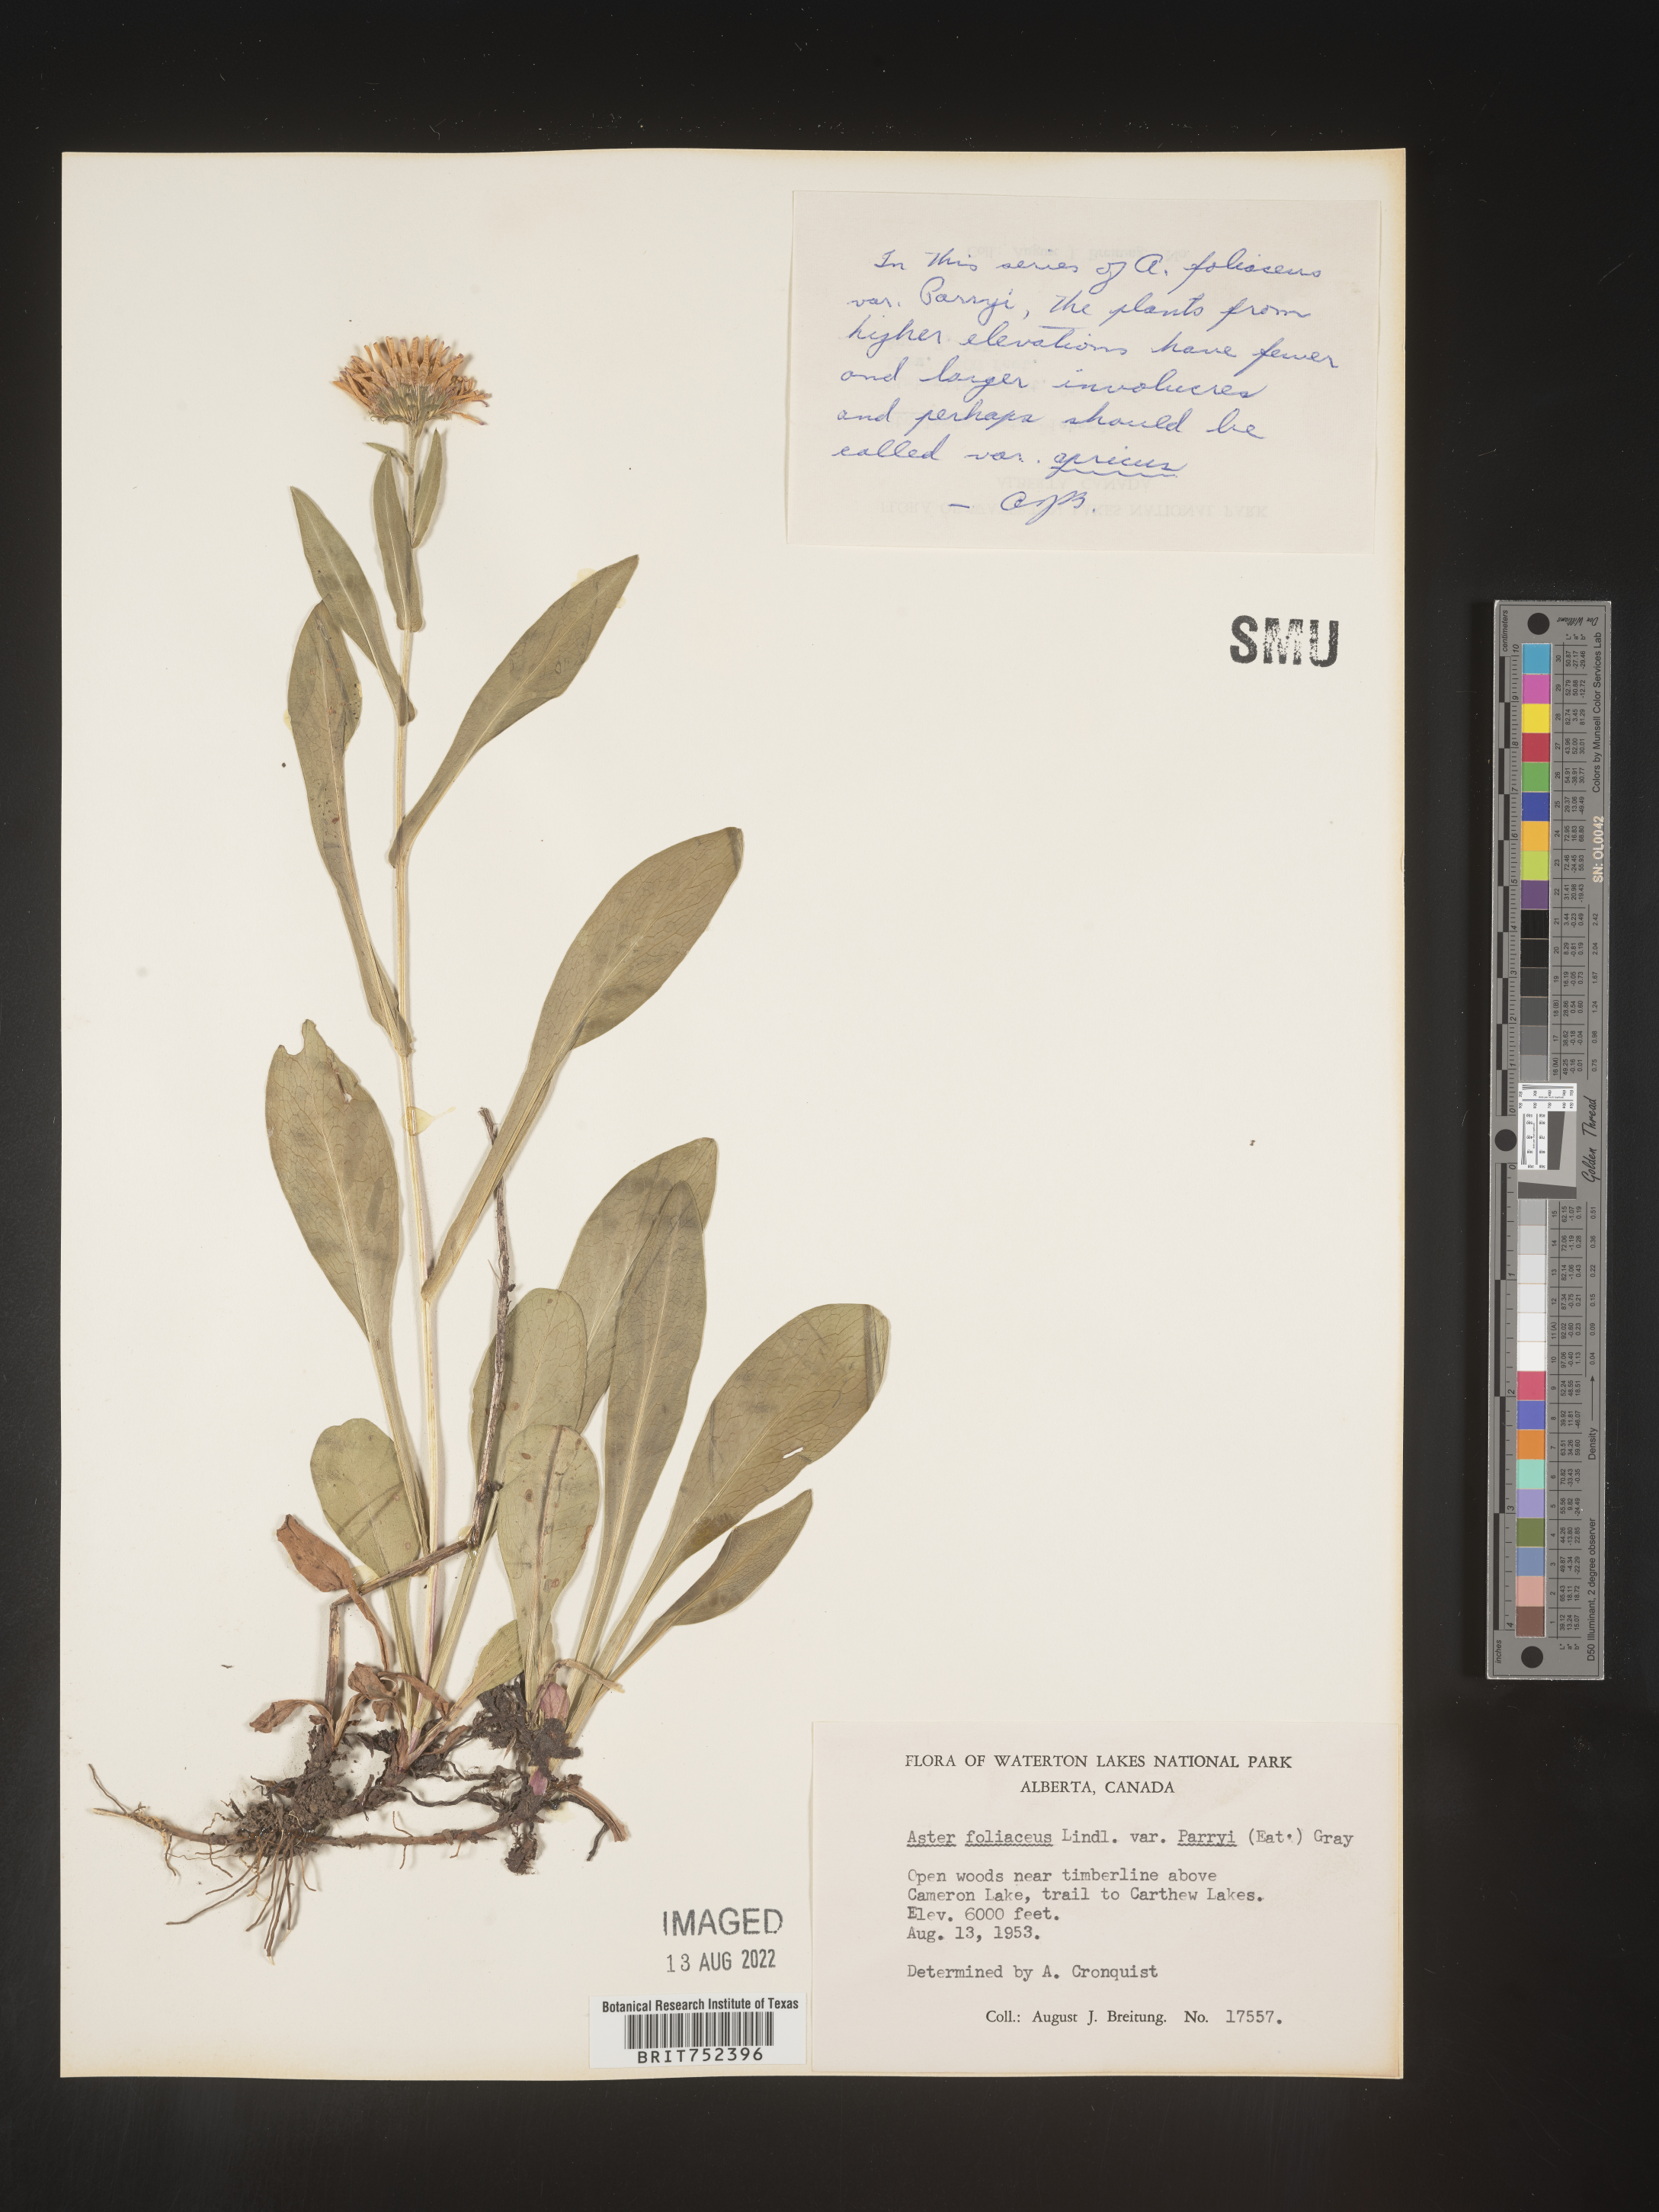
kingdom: Plantae
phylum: Tracheophyta
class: Magnoliopsida
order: Asterales
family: Asteraceae
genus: Symphyotrichum
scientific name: Symphyotrichum foliaceum
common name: Leafy aster
